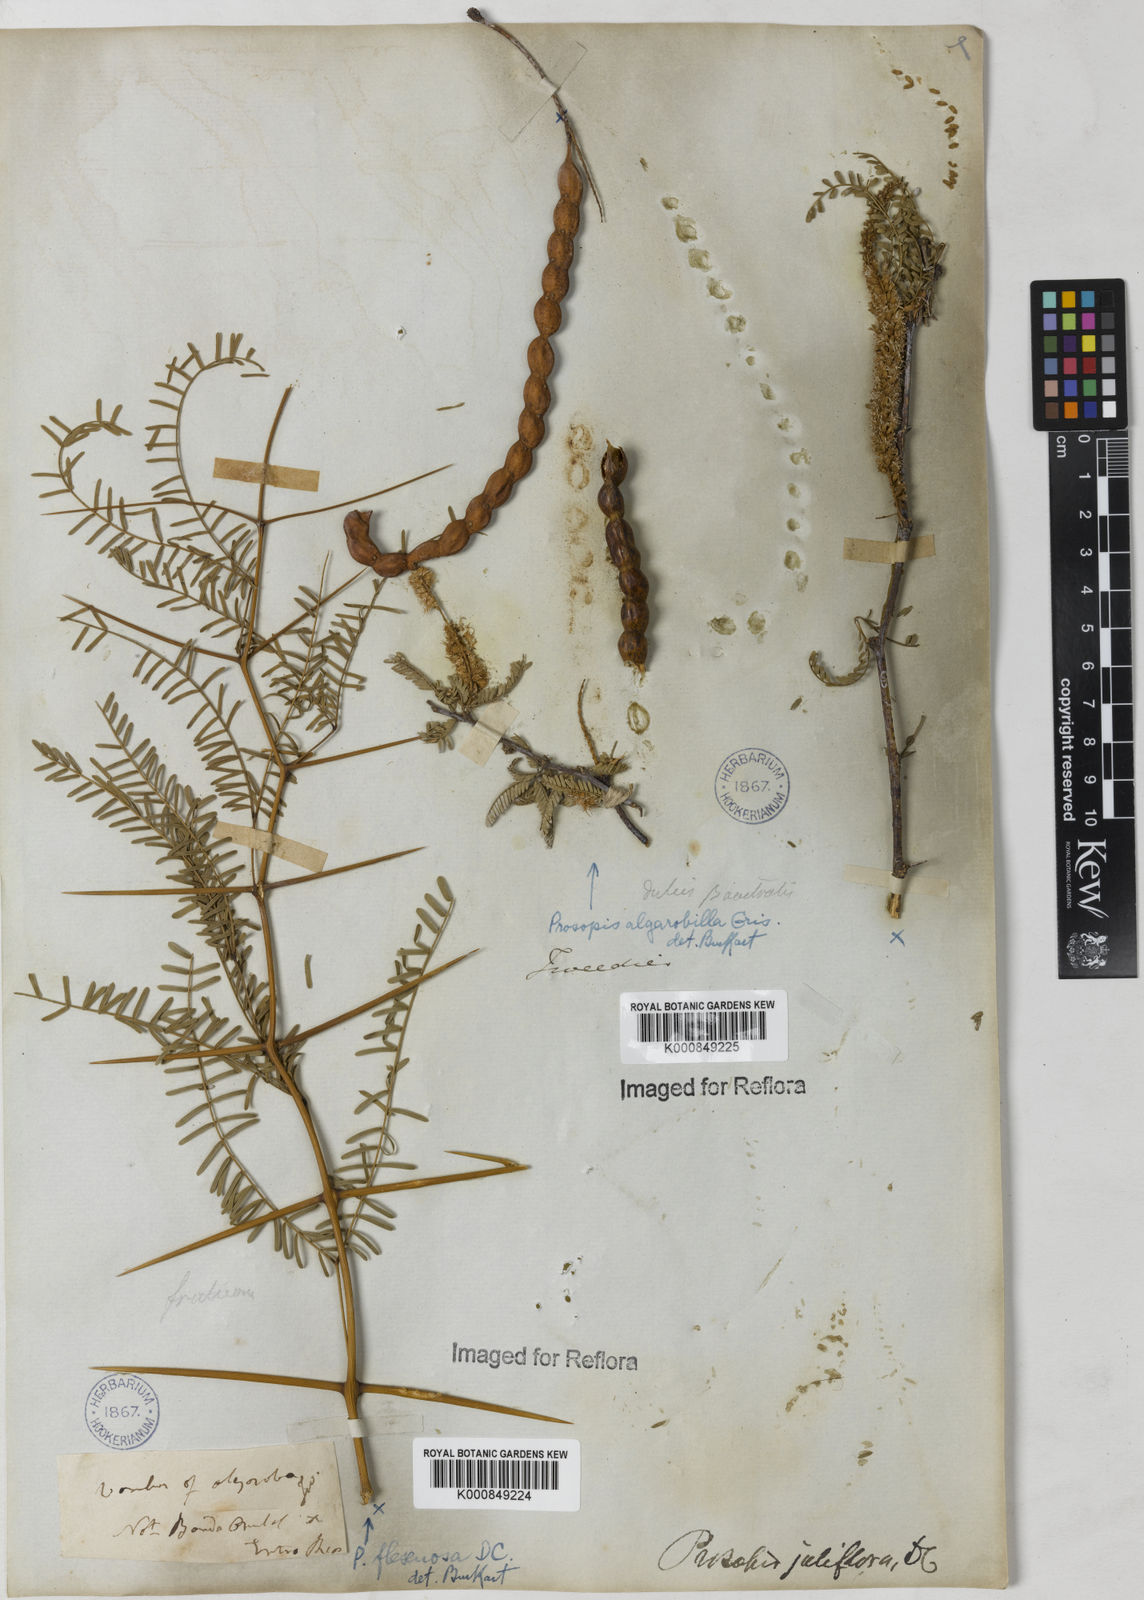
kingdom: Plantae
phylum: Tracheophyta
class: Magnoliopsida
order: Fabales
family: Fabaceae
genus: Prosopis
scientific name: Prosopis juliflora
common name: Mesquite
